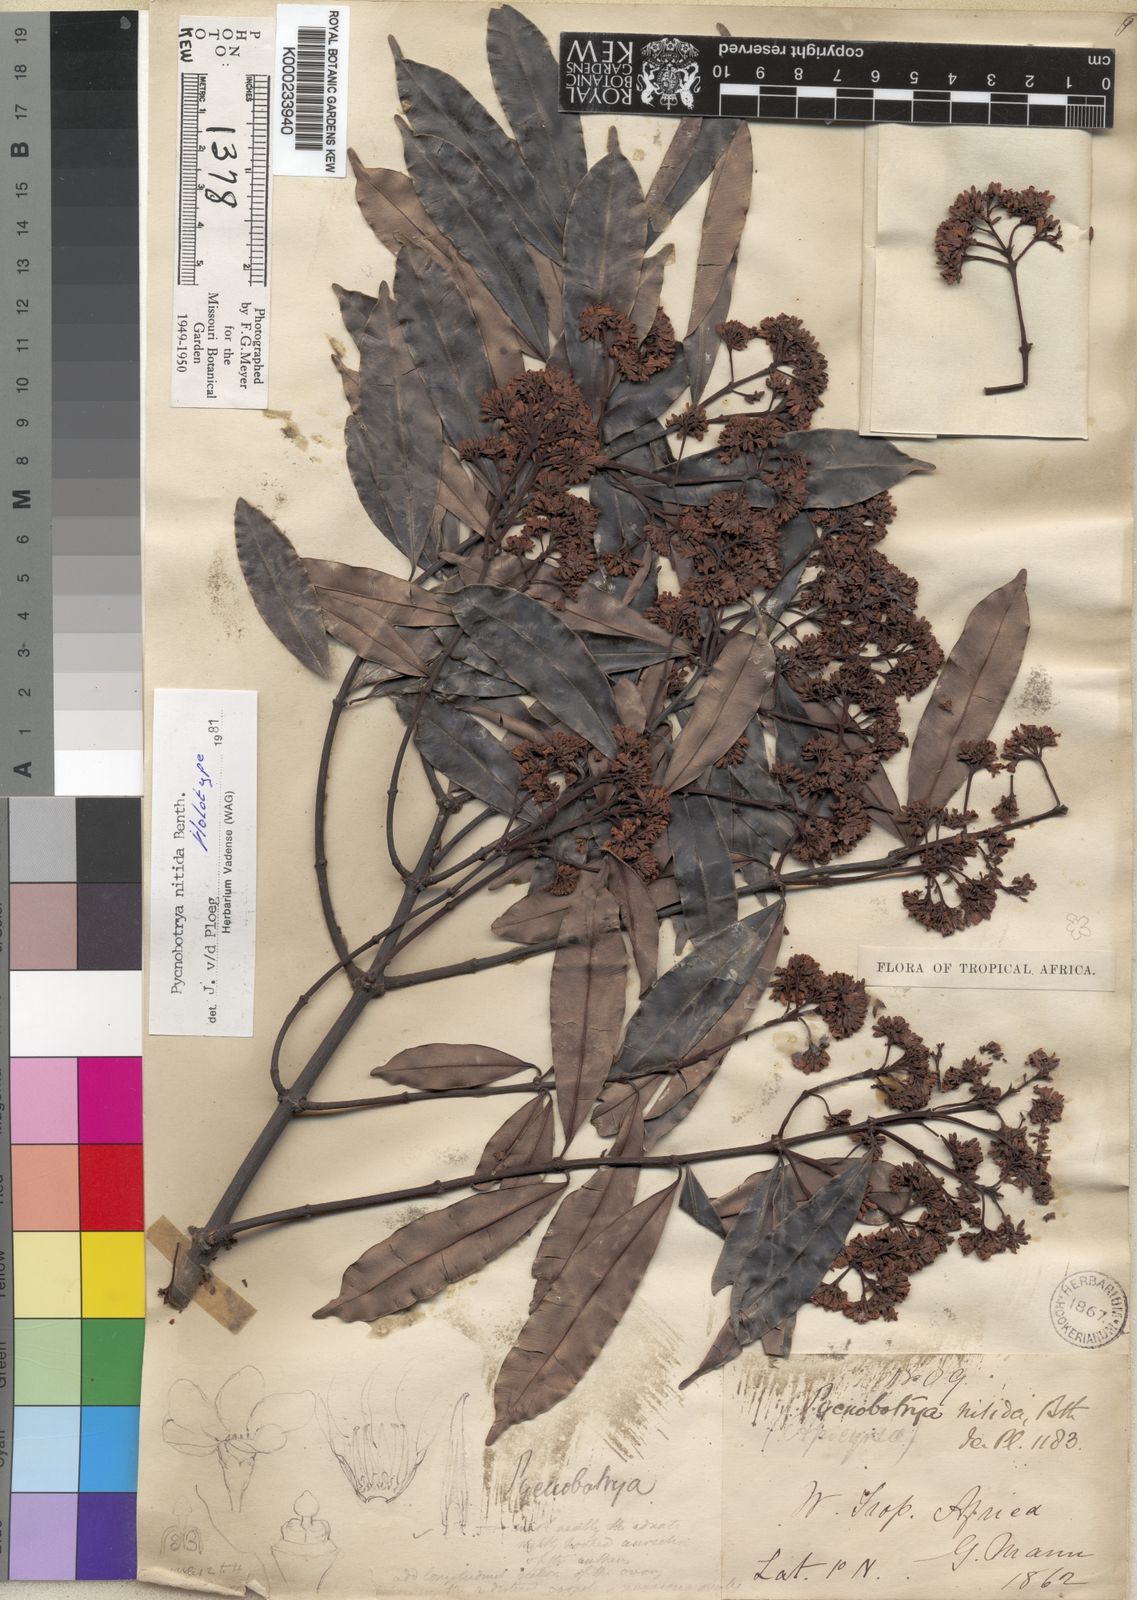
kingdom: Plantae
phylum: Tracheophyta
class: Magnoliopsida
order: Gentianales
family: Apocynaceae
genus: Pycnobotrya
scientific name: Pycnobotrya nitida
